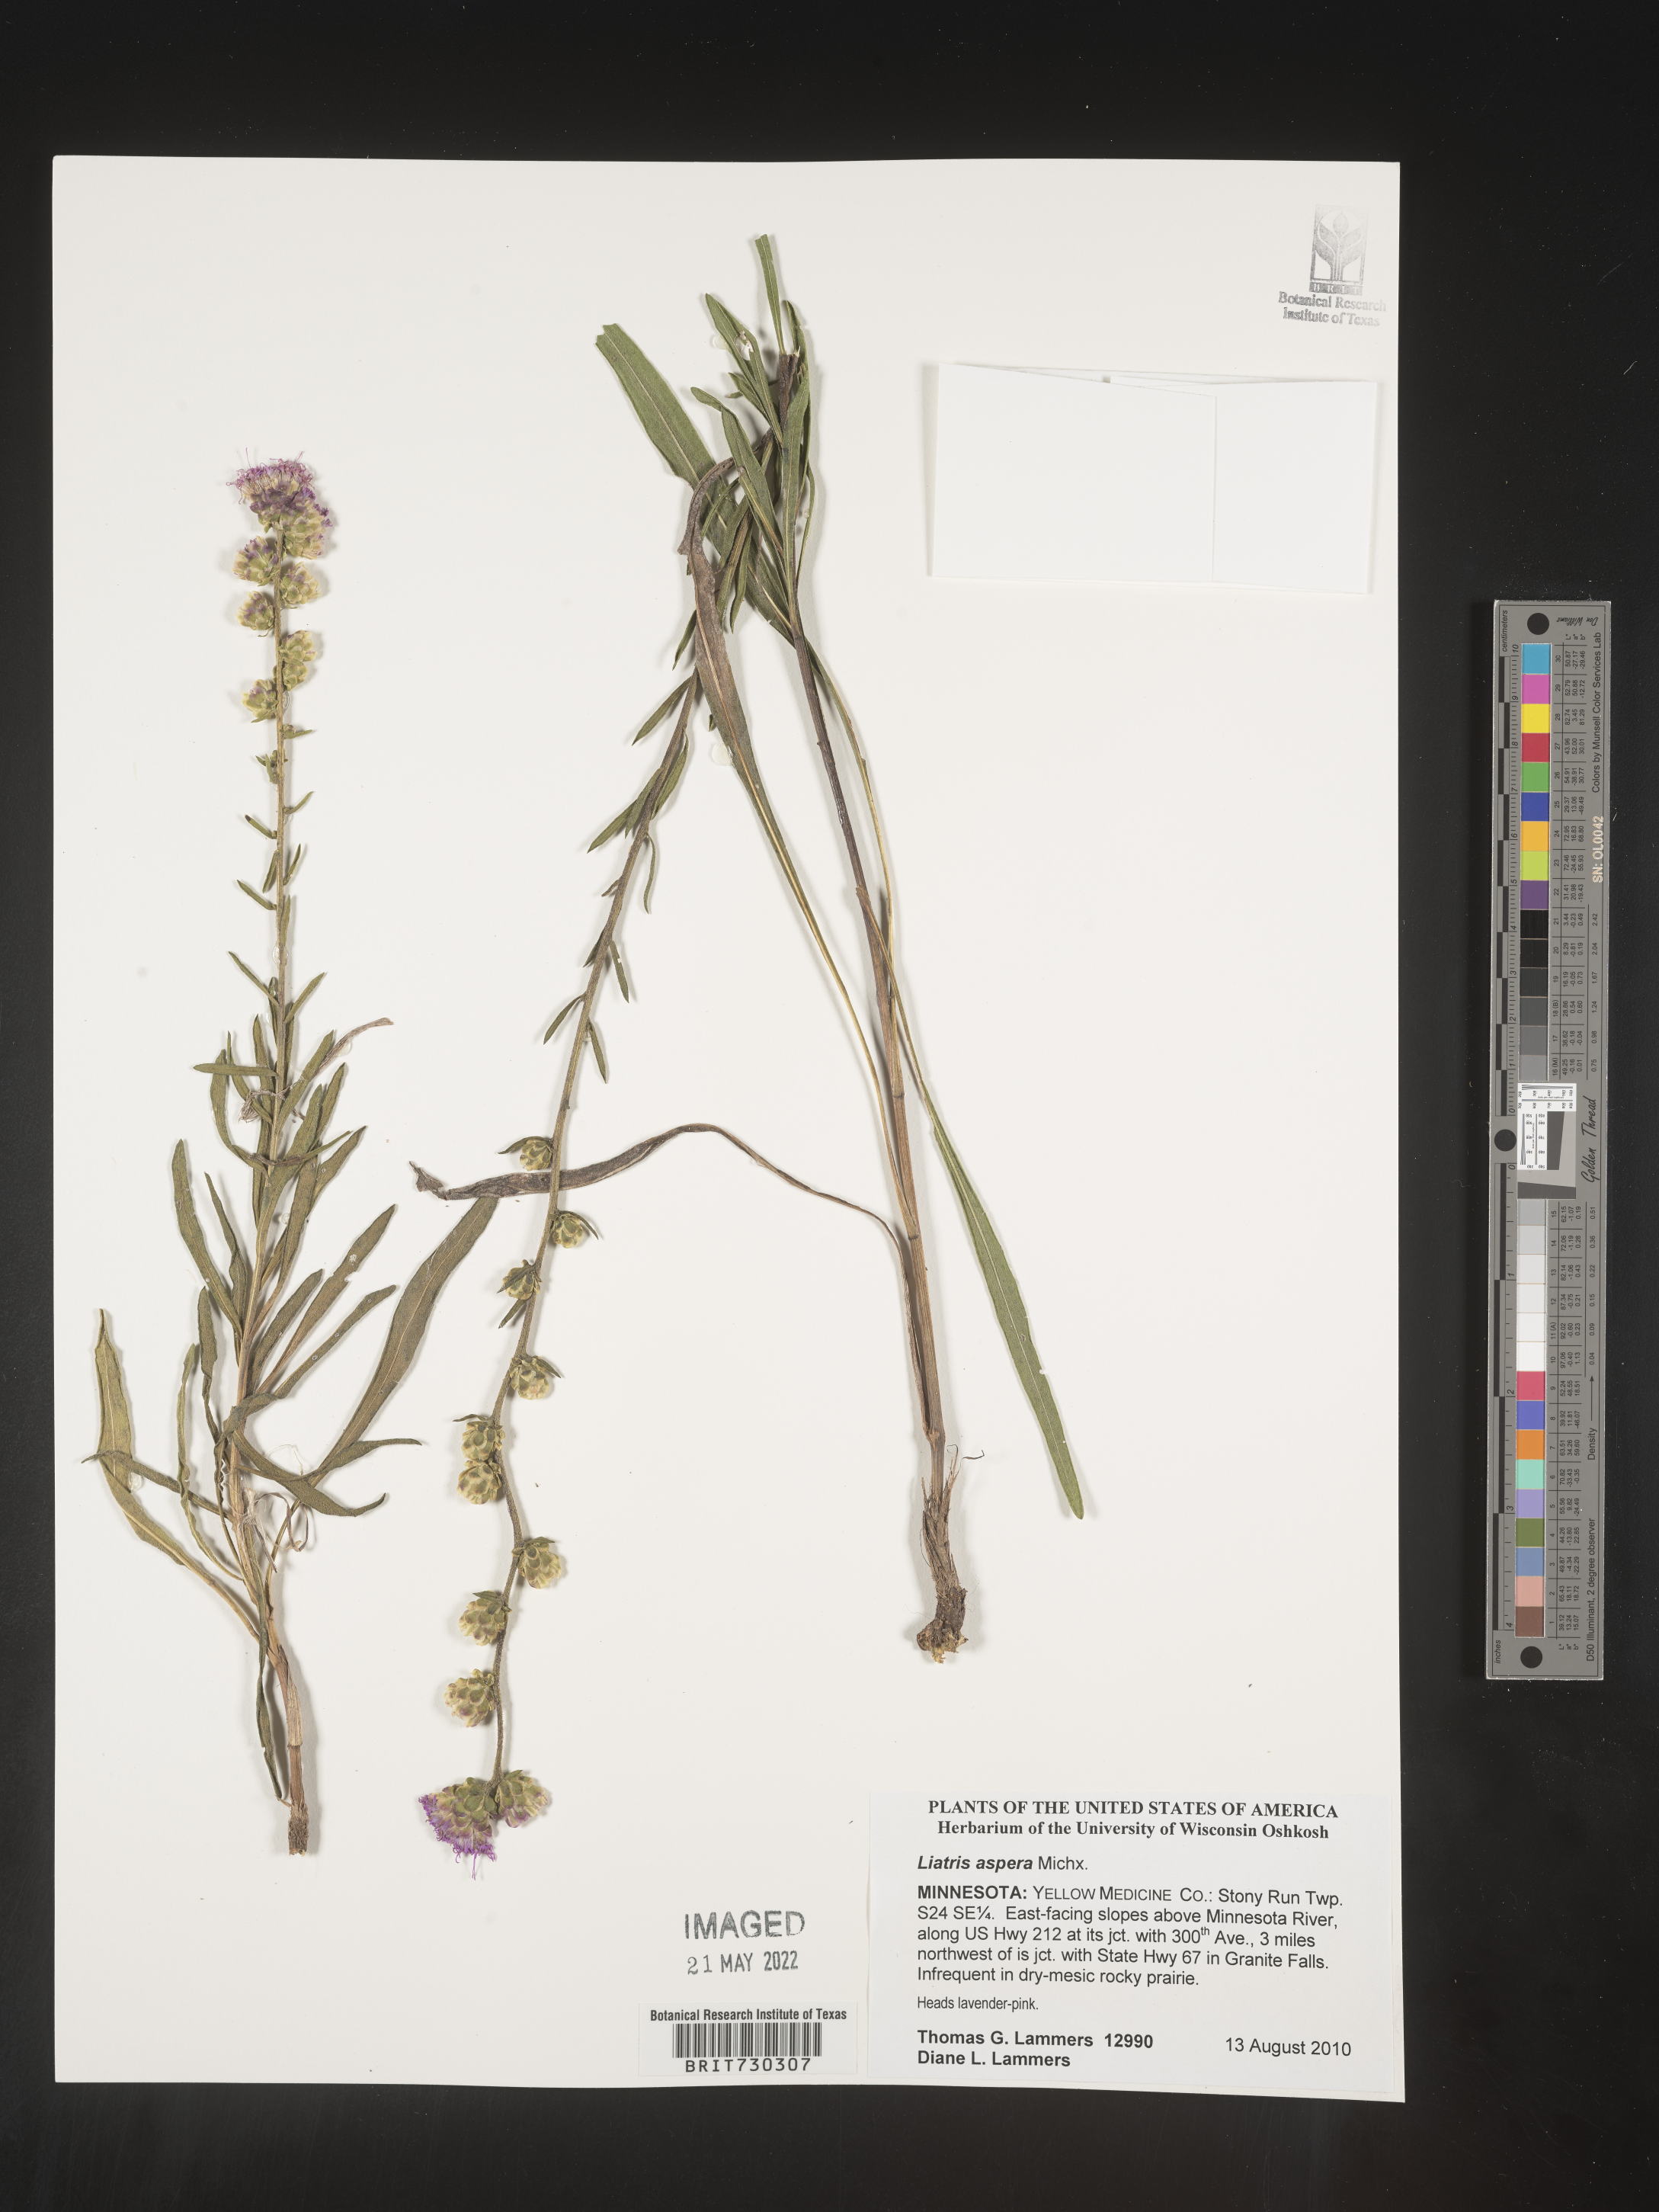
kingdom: Plantae
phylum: Tracheophyta
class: Magnoliopsida
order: Asterales
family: Asteraceae
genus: Liatris
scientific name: Liatris aspera
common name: Lacerate blazing-star
